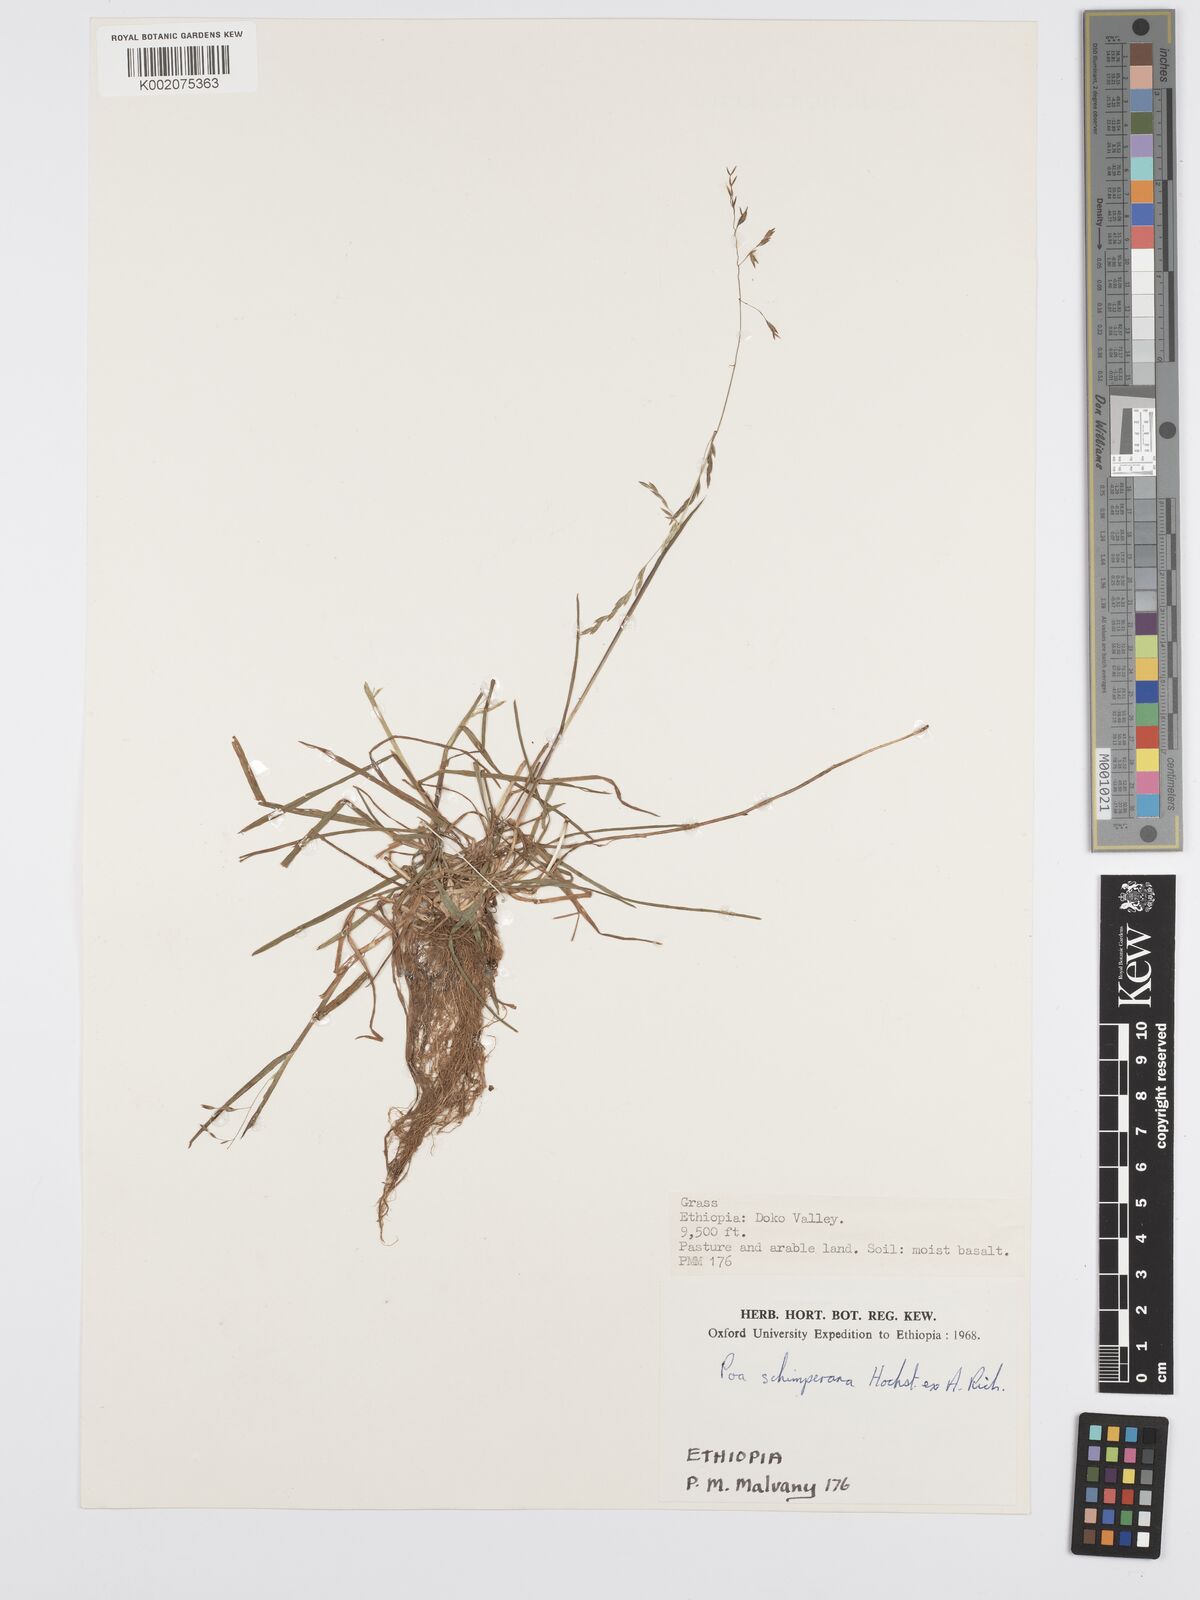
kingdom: Plantae
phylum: Tracheophyta
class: Liliopsida
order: Poales
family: Poaceae
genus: Poa
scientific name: Poa schimperiana
